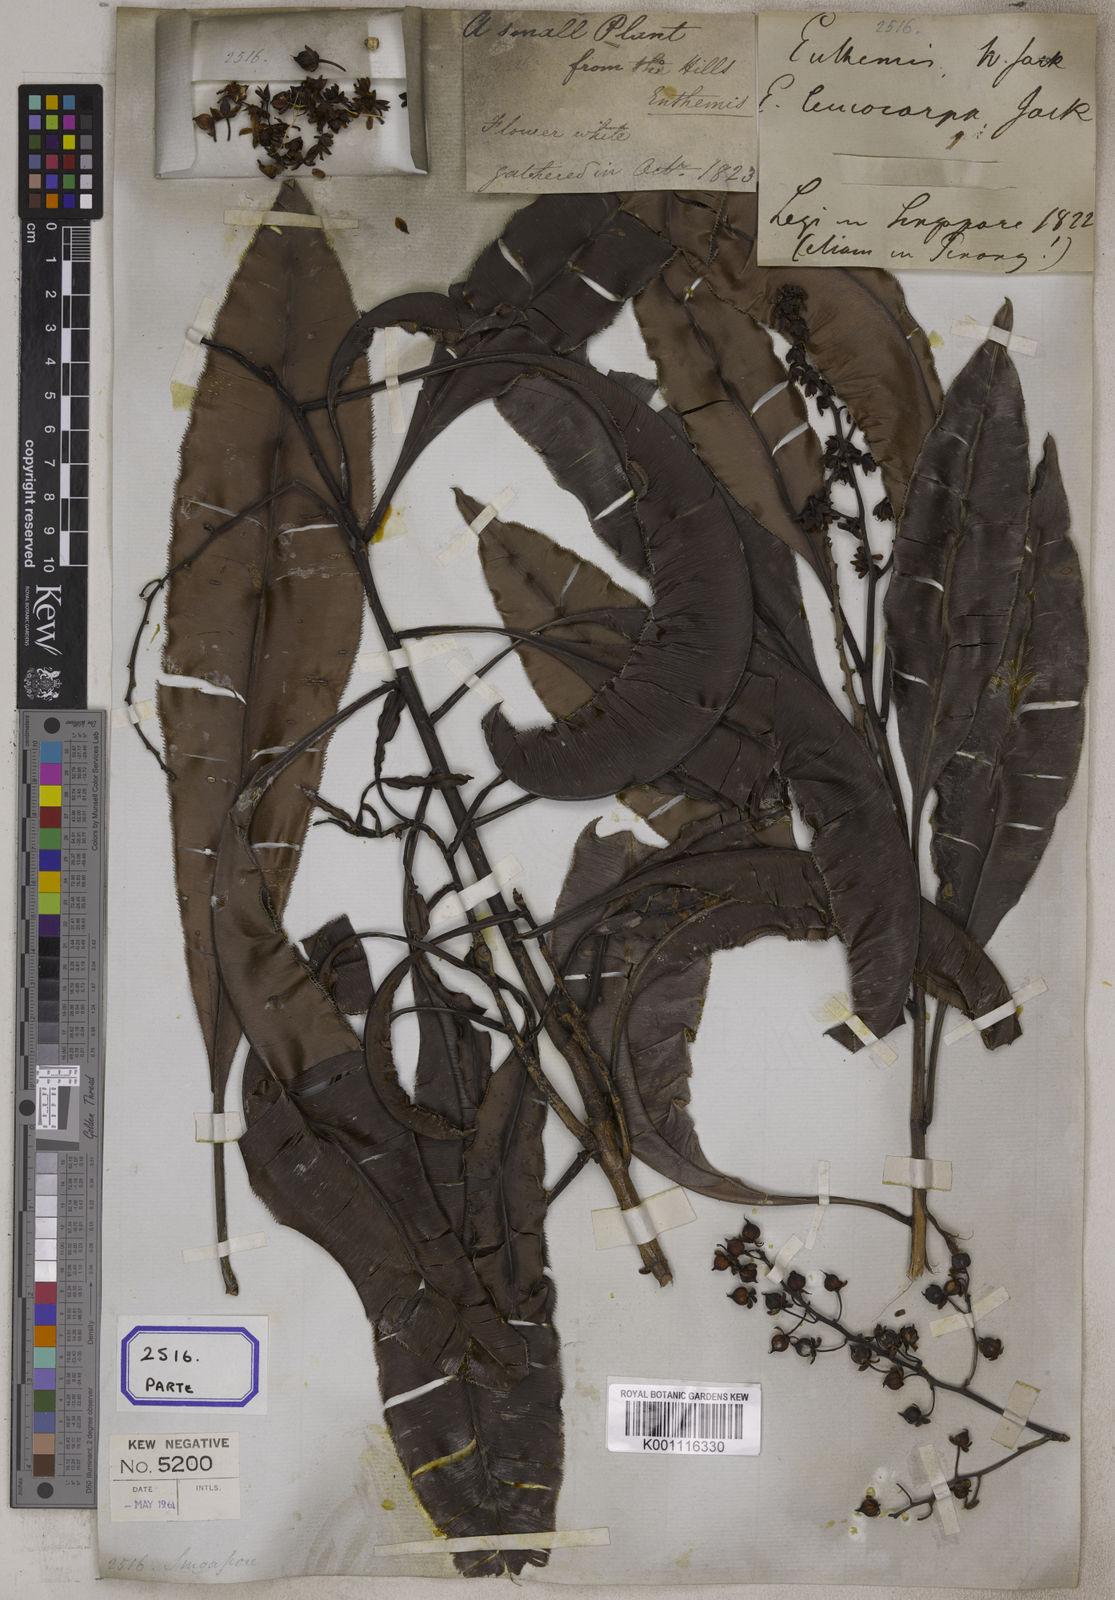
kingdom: Plantae
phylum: Tracheophyta
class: Magnoliopsida
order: Malpighiales
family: Ochnaceae
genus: Euthemis
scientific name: Euthemis leucocarpa
